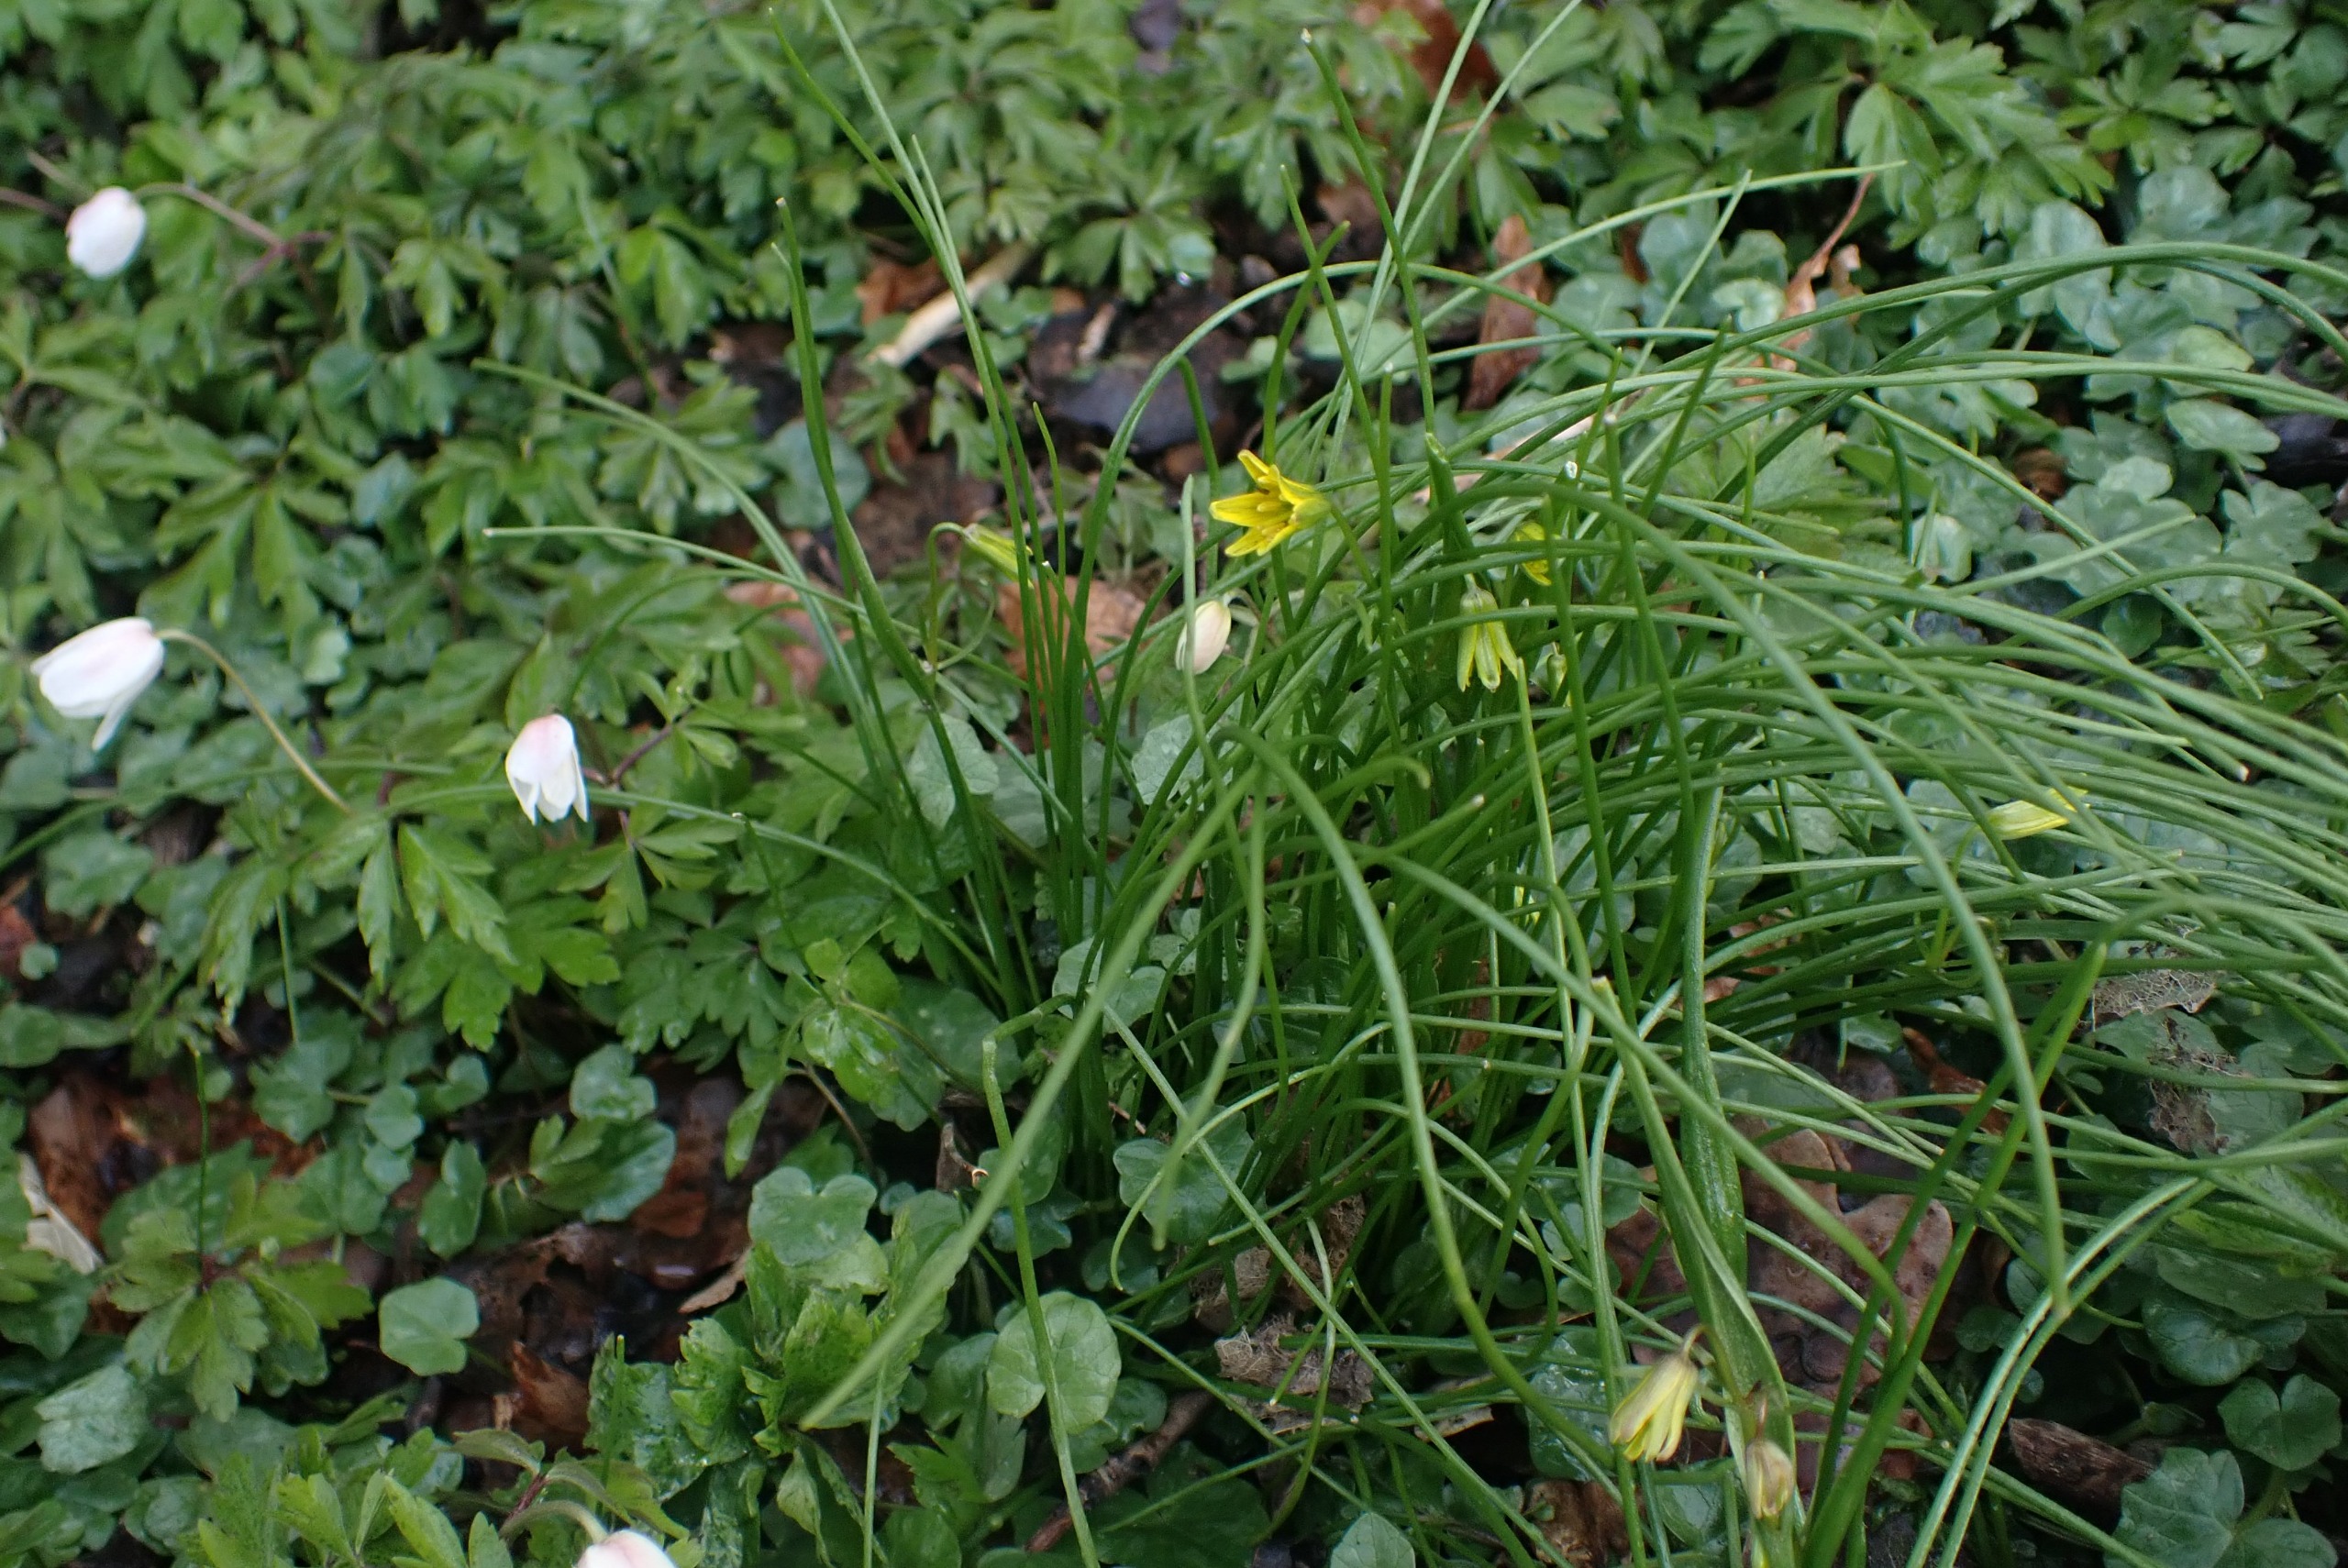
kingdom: Plantae
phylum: Tracheophyta
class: Liliopsida
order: Liliales
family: Liliaceae
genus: Gagea
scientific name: Gagea spathacea
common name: Hylster-guldstjerne
